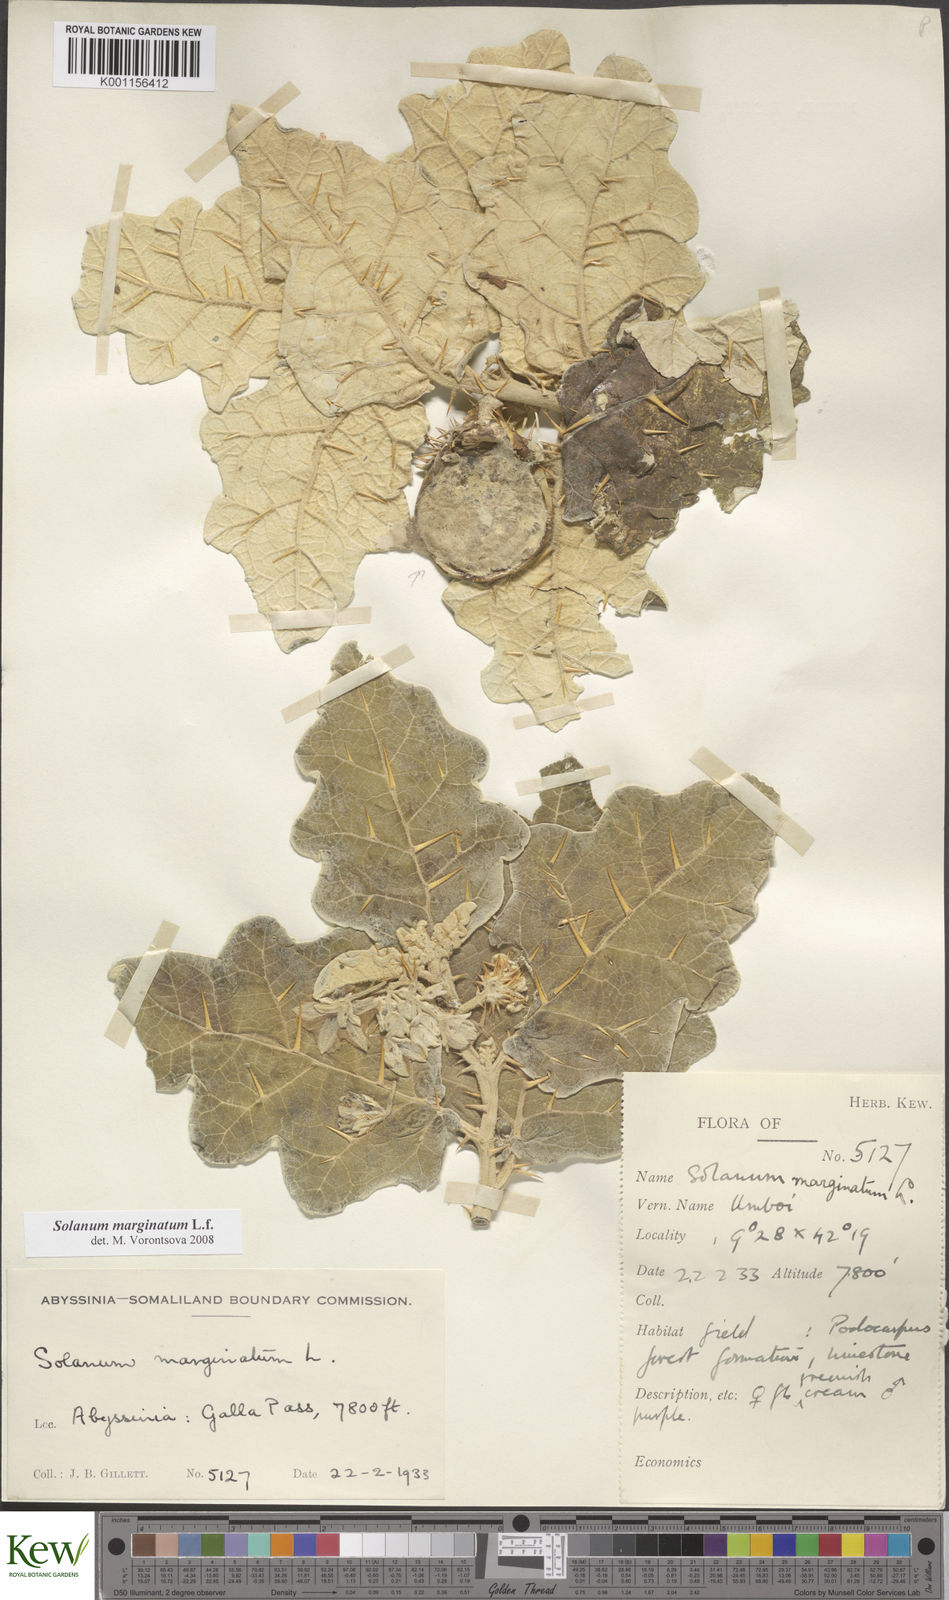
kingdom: Plantae
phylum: Tracheophyta
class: Magnoliopsida
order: Solanales
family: Solanaceae
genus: Solanum
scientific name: Solanum marginatum
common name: Purple african nightshade
